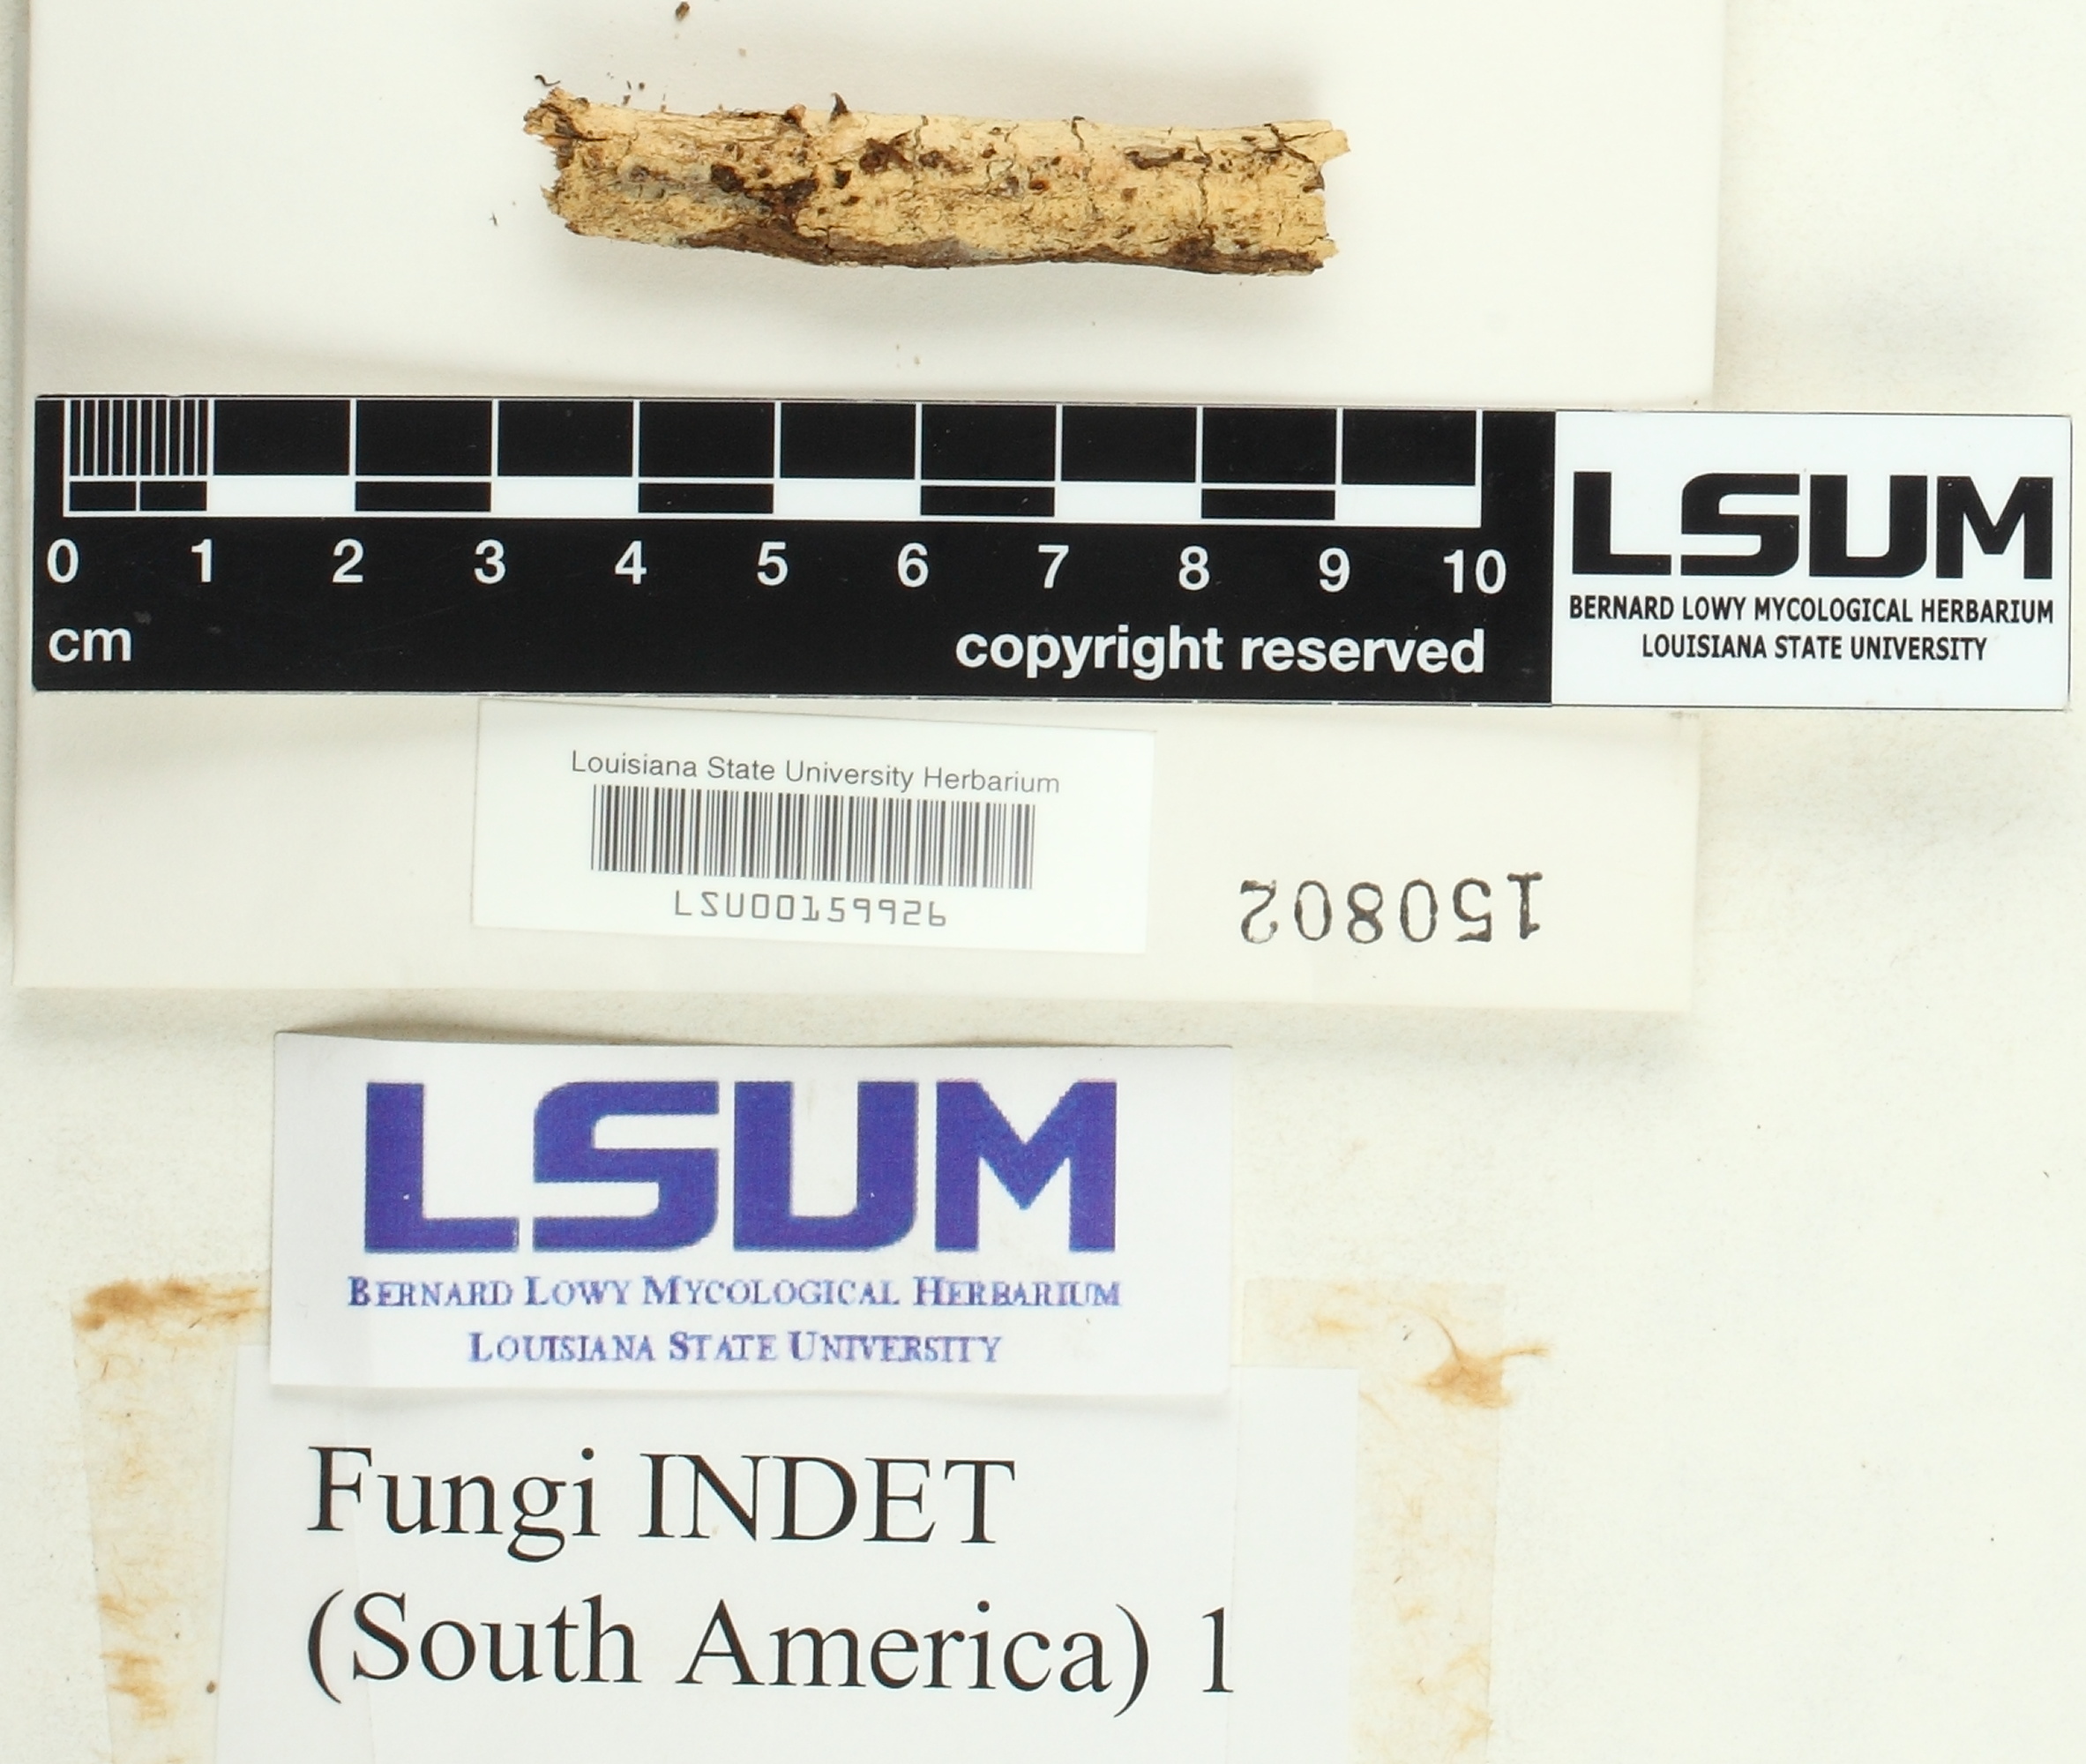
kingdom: Fungi
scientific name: Fungi
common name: Fungi
